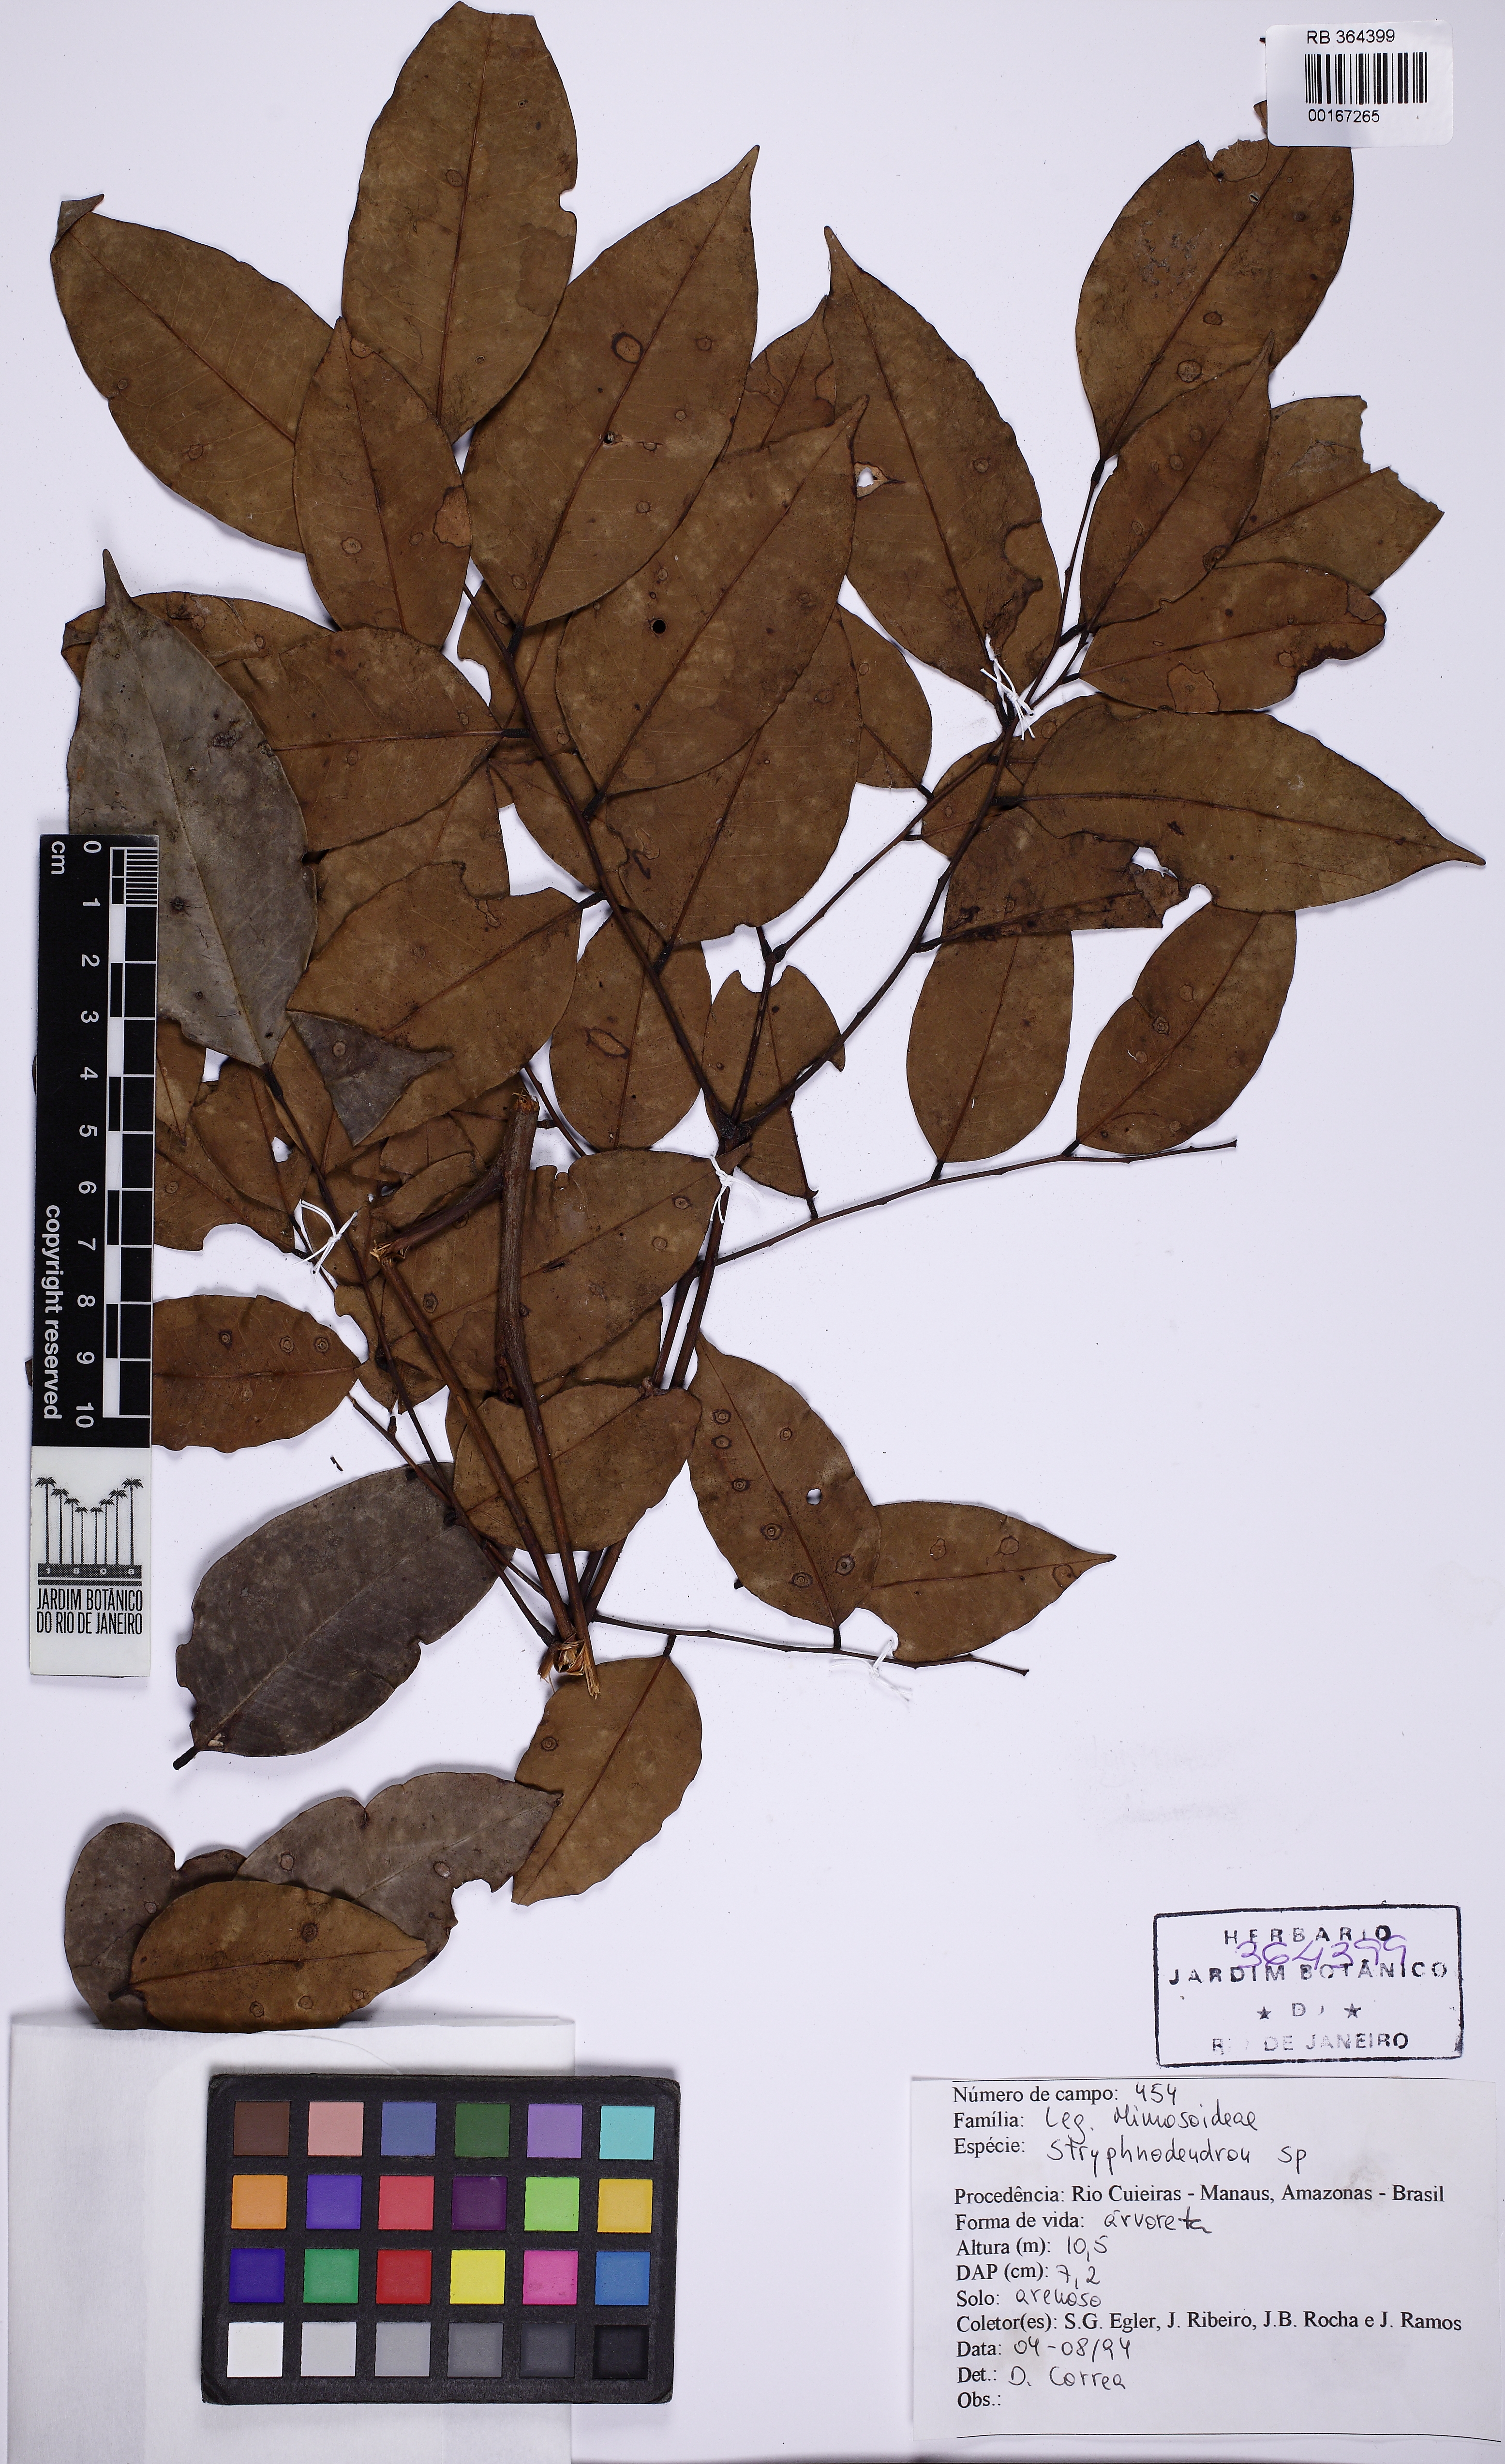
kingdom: Plantae
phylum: Tracheophyta
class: Magnoliopsida
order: Fabales
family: Fabaceae
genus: Stryphnodendron
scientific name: Stryphnodendron
